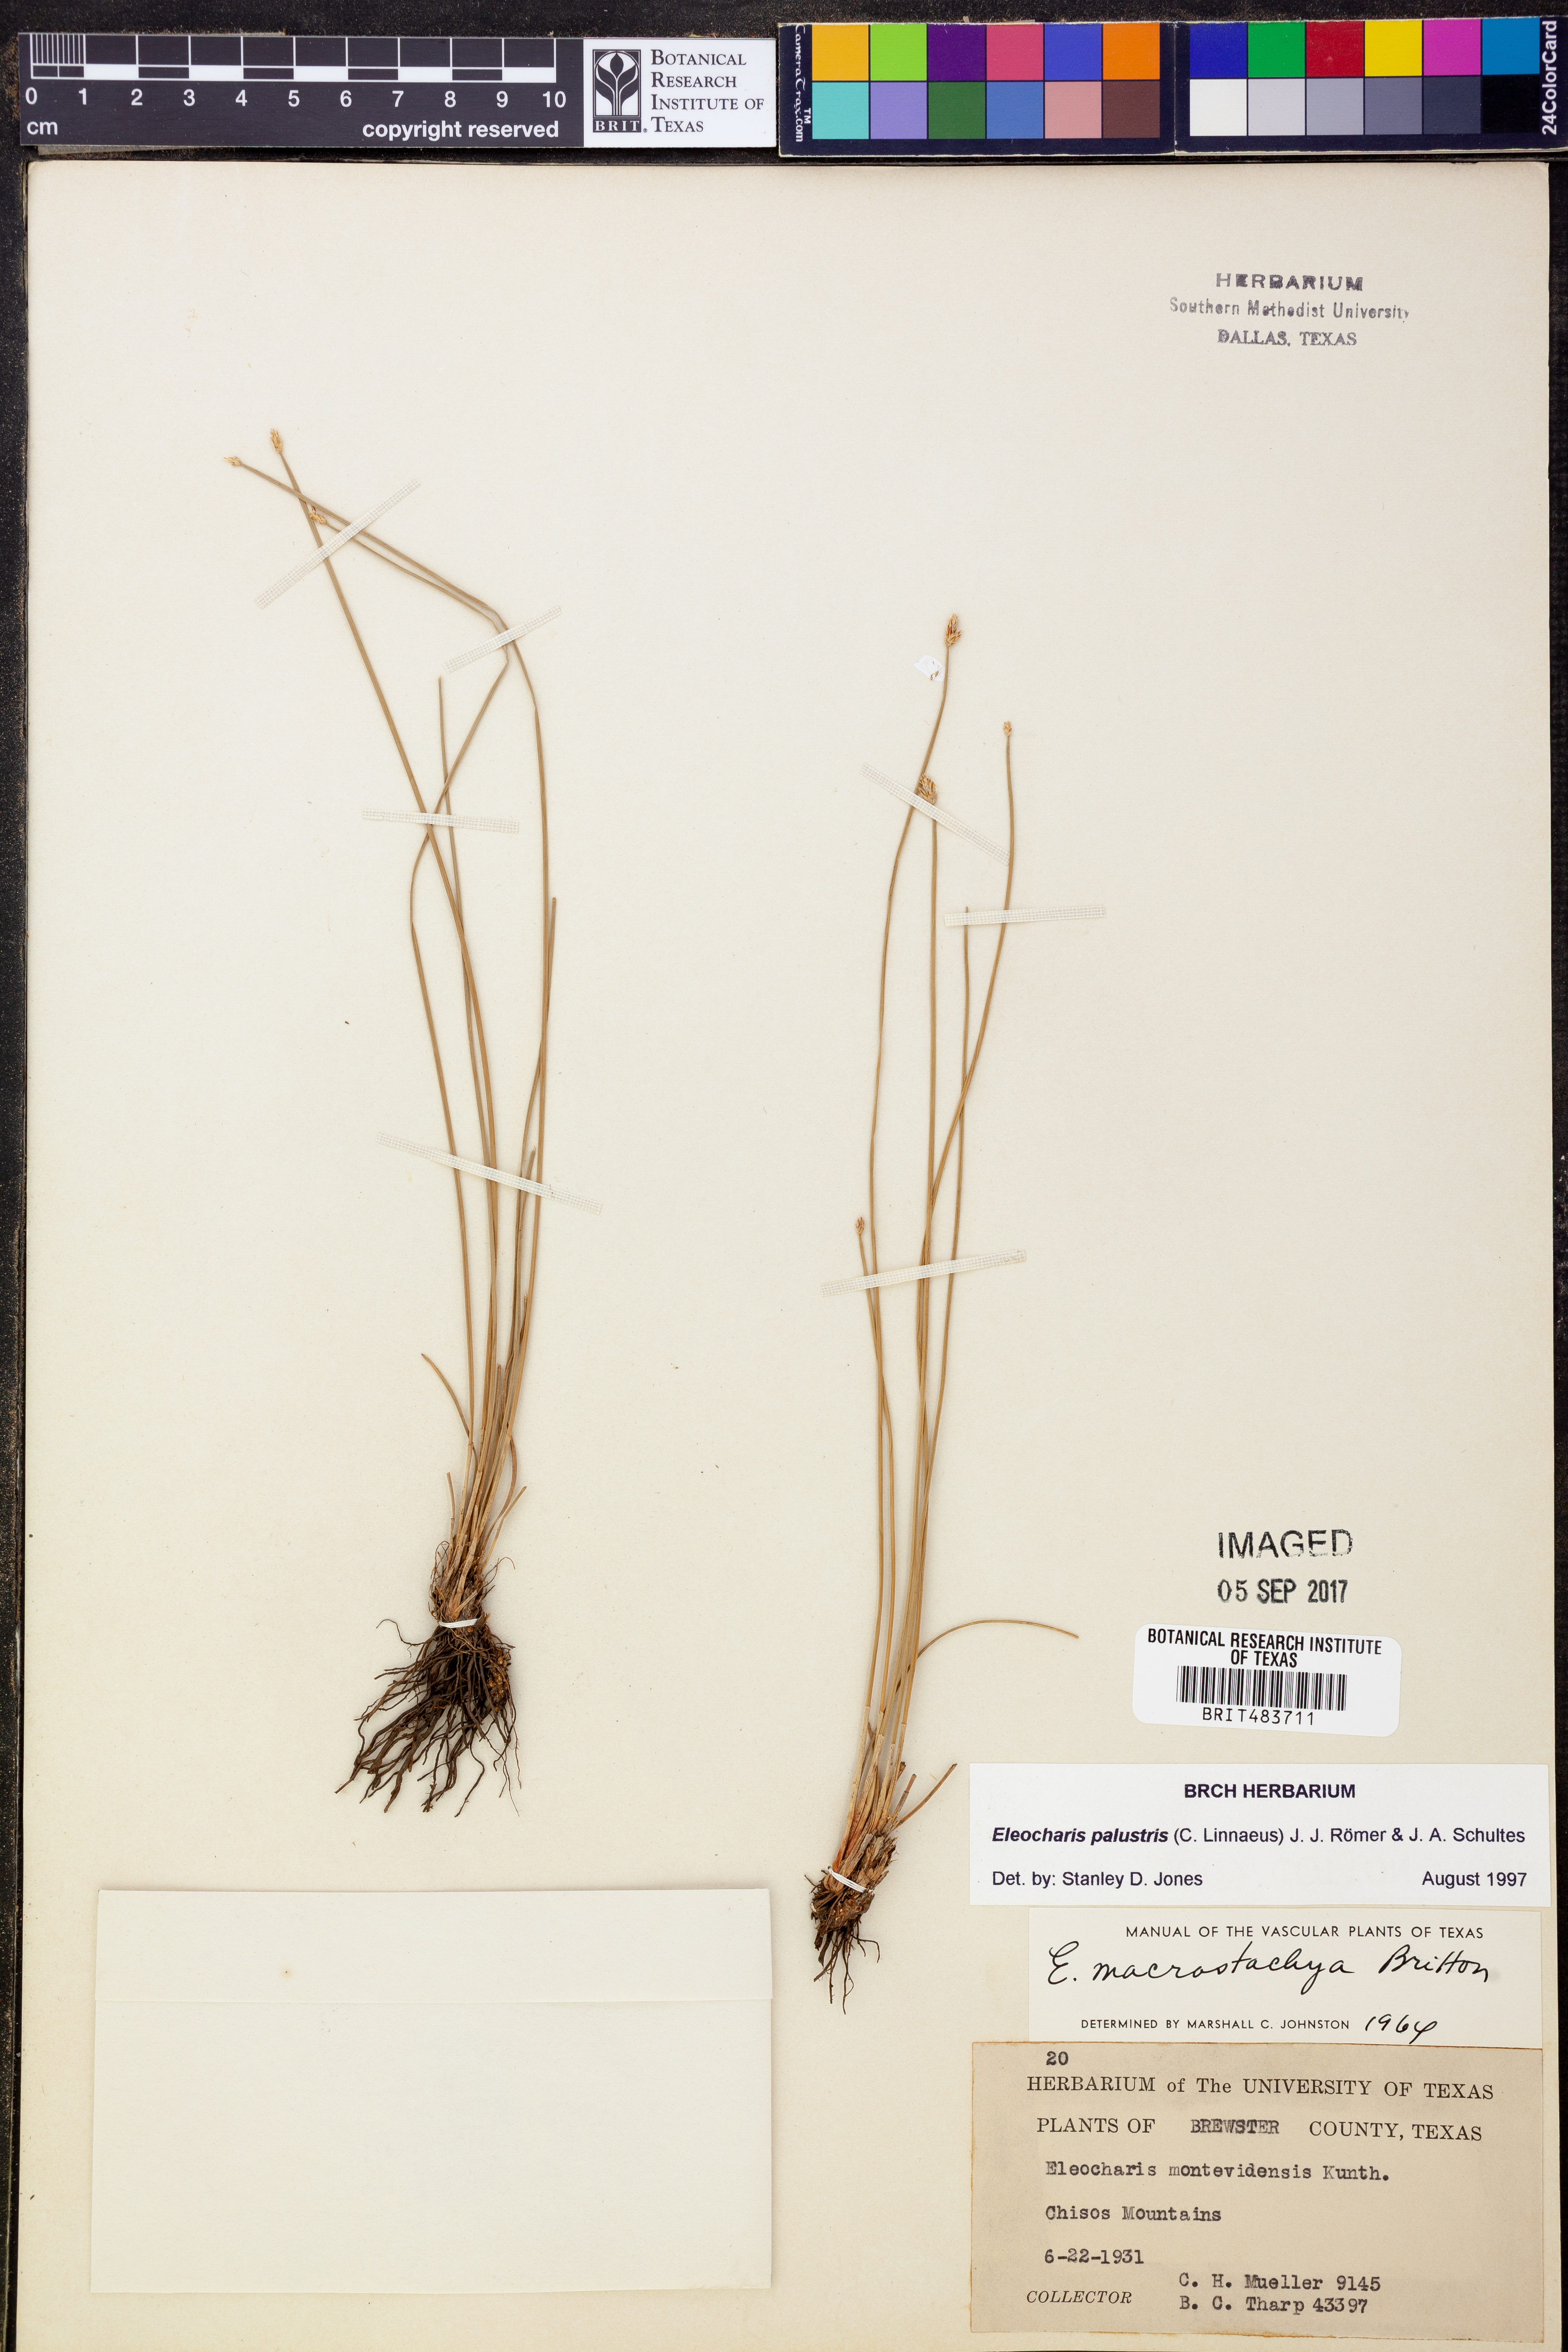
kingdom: Plantae
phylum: Tracheophyta
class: Liliopsida
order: Poales
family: Cyperaceae
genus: Eleocharis
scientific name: Eleocharis palustris
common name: Common spike-rush
